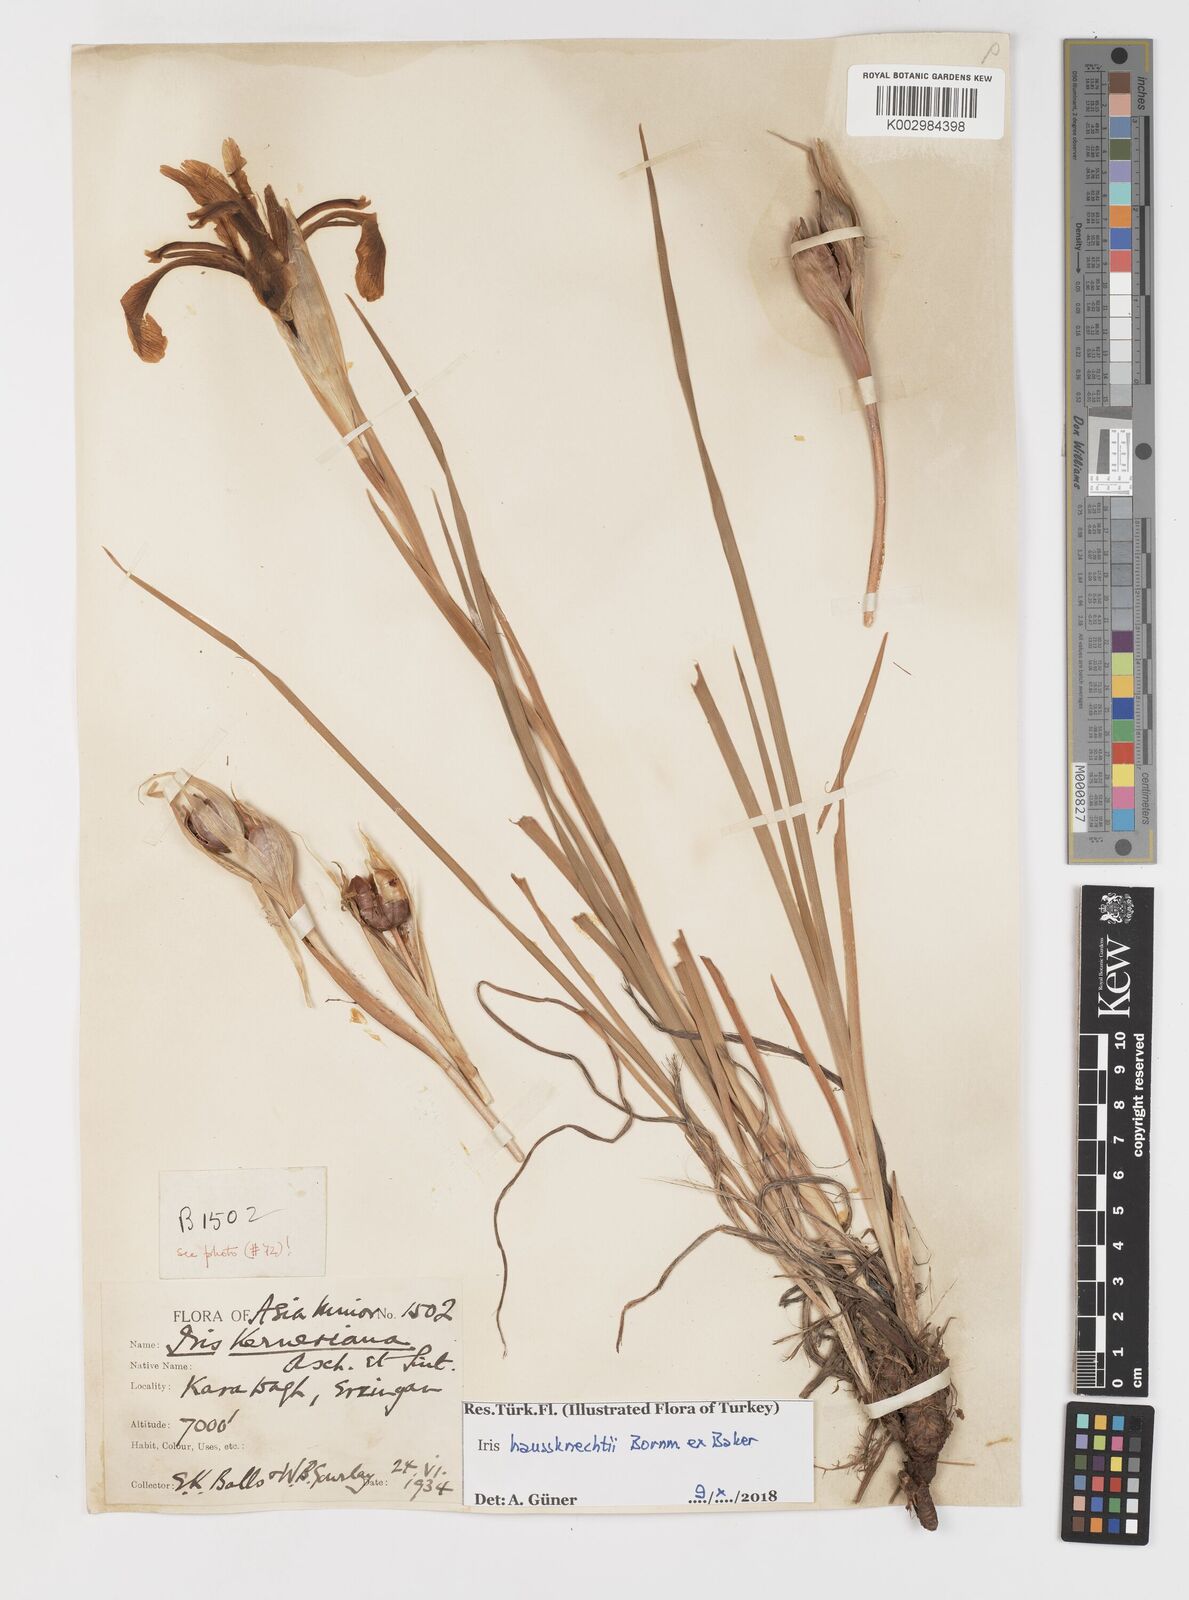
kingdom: Plantae
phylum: Tracheophyta
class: Liliopsida
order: Asparagales
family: Iridaceae
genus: Iris
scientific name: Iris haussknechtii
